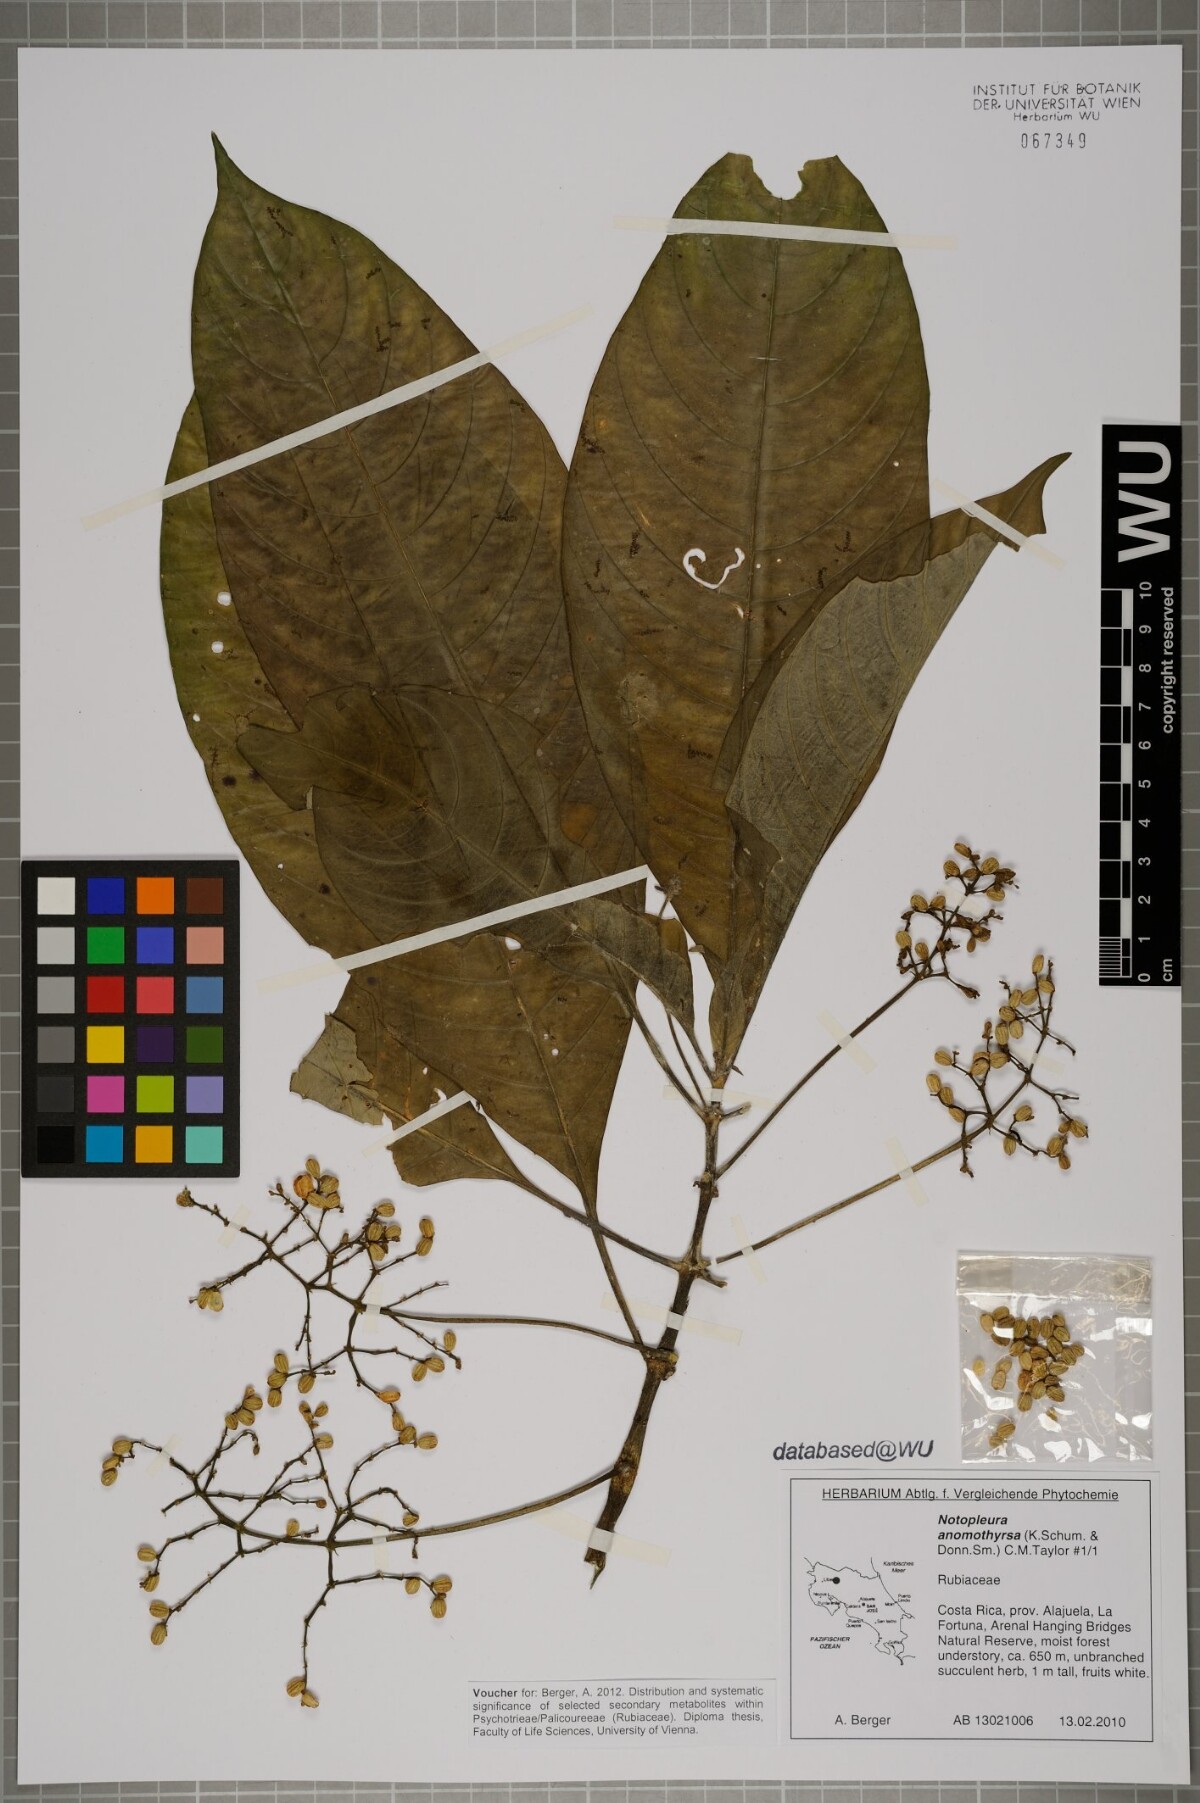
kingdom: Plantae
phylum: Tracheophyta
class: Magnoliopsida
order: Gentianales
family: Rubiaceae
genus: Notopleura
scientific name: Notopleura anomothyrsa
